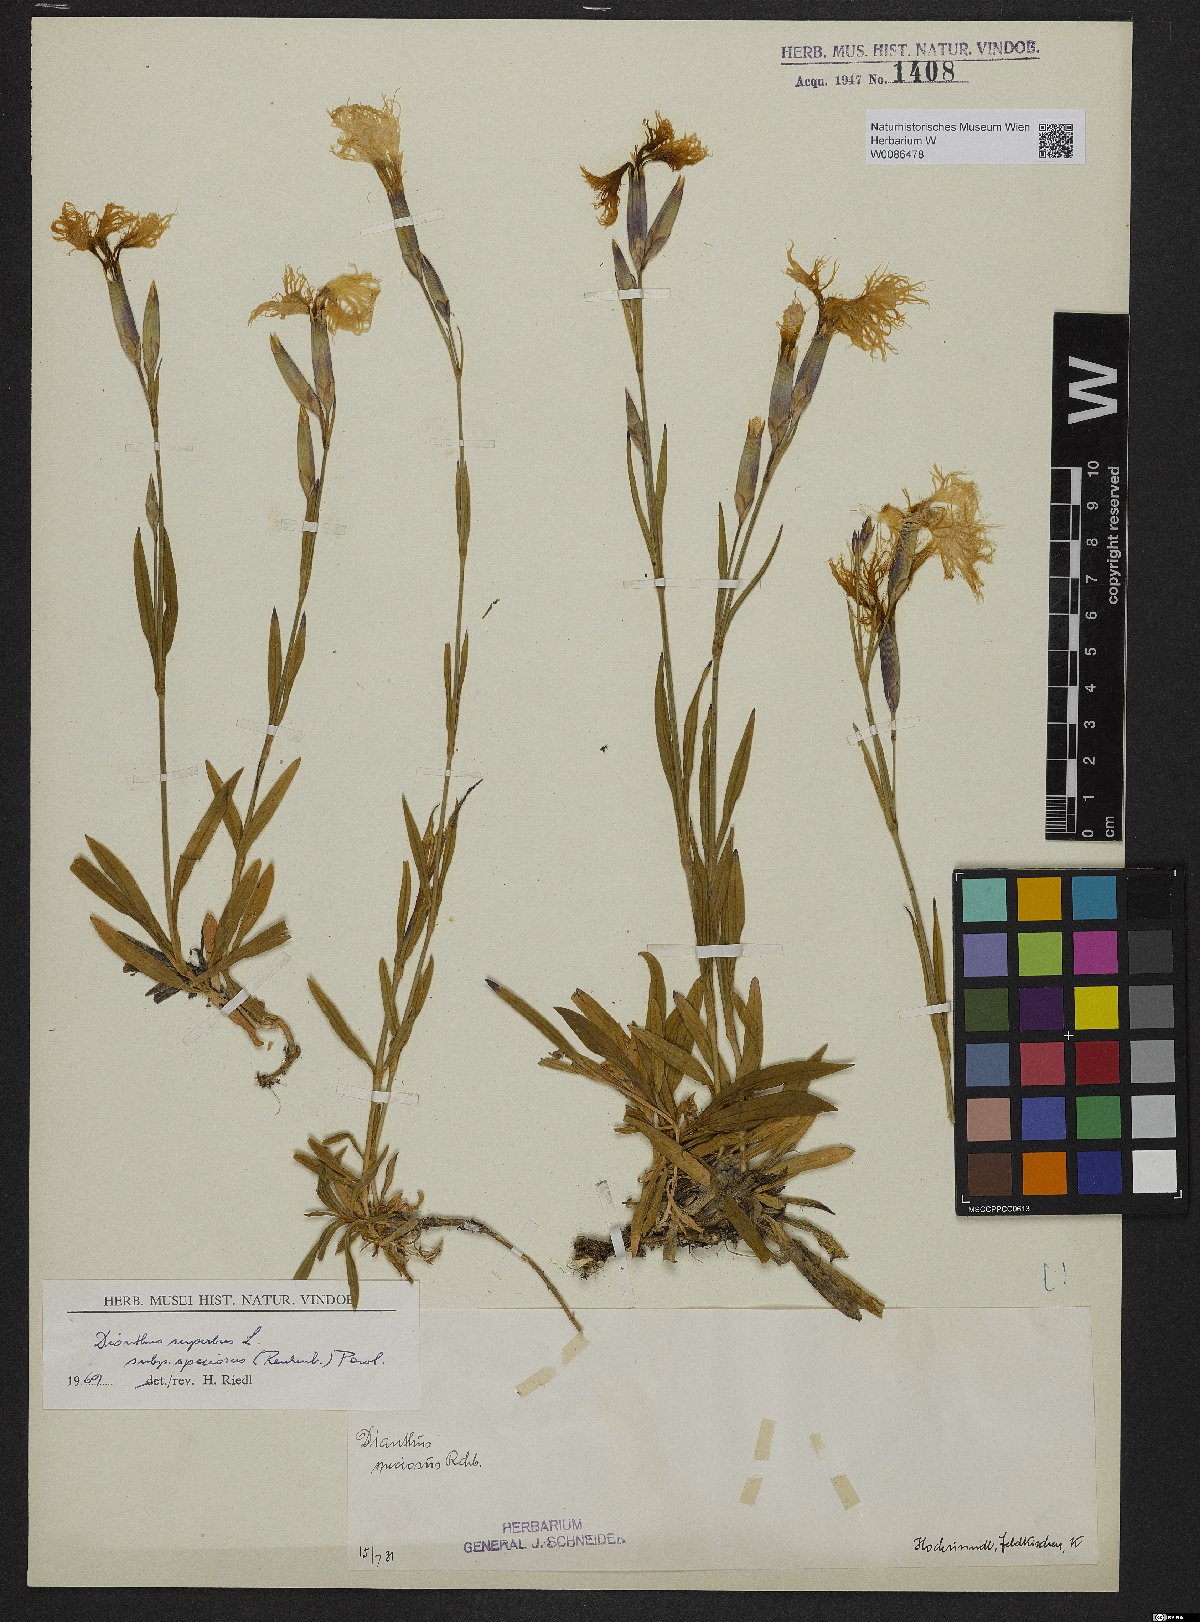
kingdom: Plantae
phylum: Tracheophyta
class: Magnoliopsida
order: Caryophyllales
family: Caryophyllaceae
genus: Dianthus
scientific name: Dianthus superbus
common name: Fringed pink
